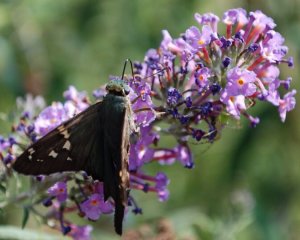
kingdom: Animalia
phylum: Arthropoda
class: Insecta
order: Lepidoptera
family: Hesperiidae
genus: Urbanus
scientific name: Urbanus proteus
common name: Long-tailed Skipper
